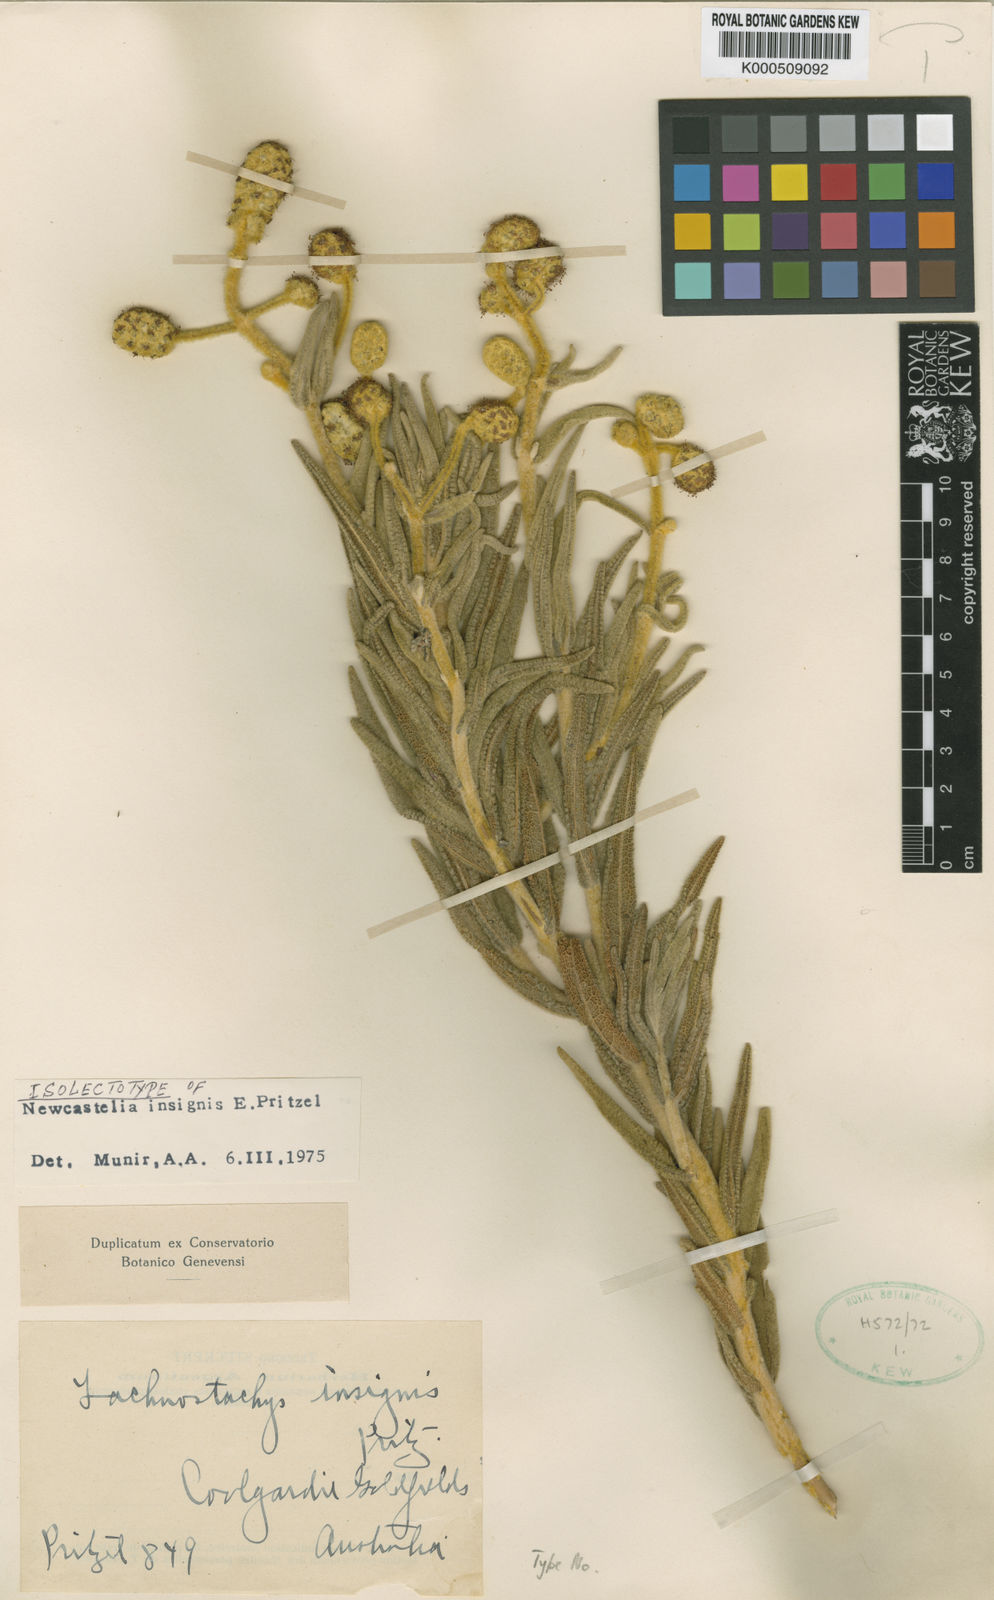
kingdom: Plantae
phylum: Tracheophyta
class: Magnoliopsida
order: Lamiales
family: Lamiaceae
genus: Apatelantha
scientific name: Apatelantha insignis
